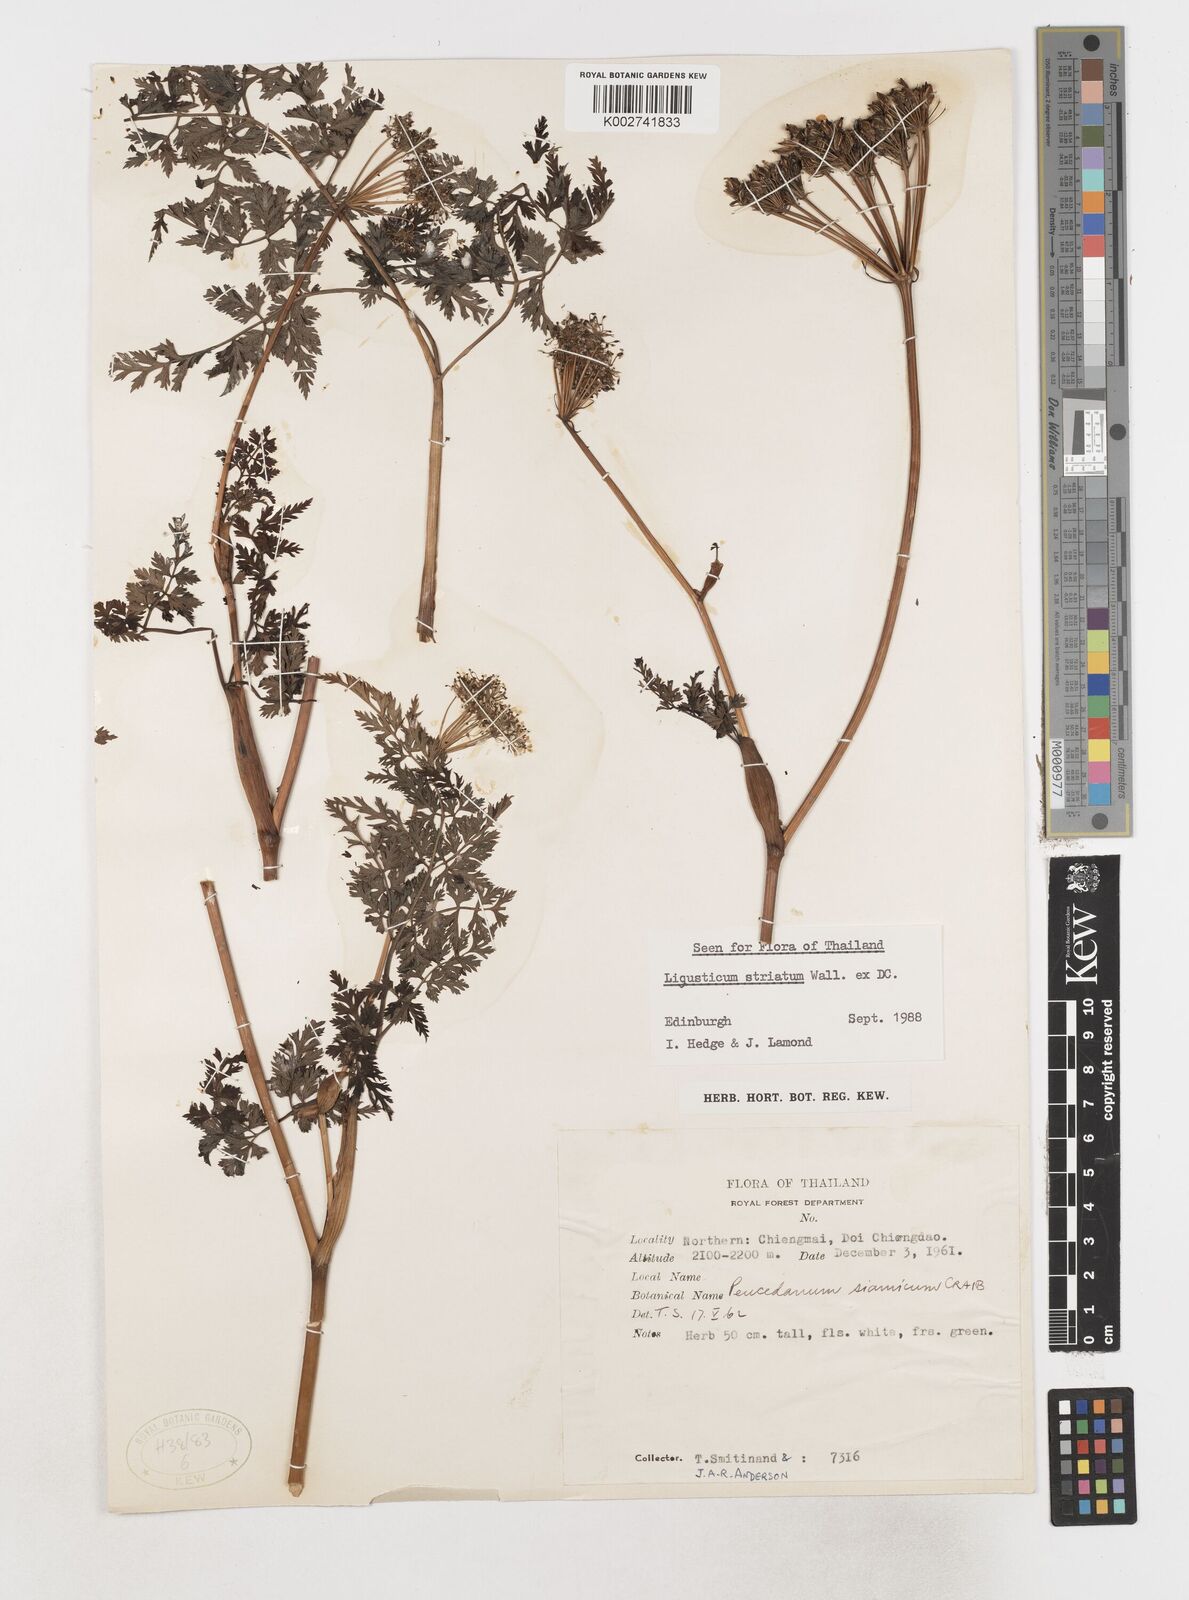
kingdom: Plantae
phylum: Tracheophyta
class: Magnoliopsida
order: Apiales
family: Apiaceae
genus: Oreocome
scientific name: Oreocome striata
